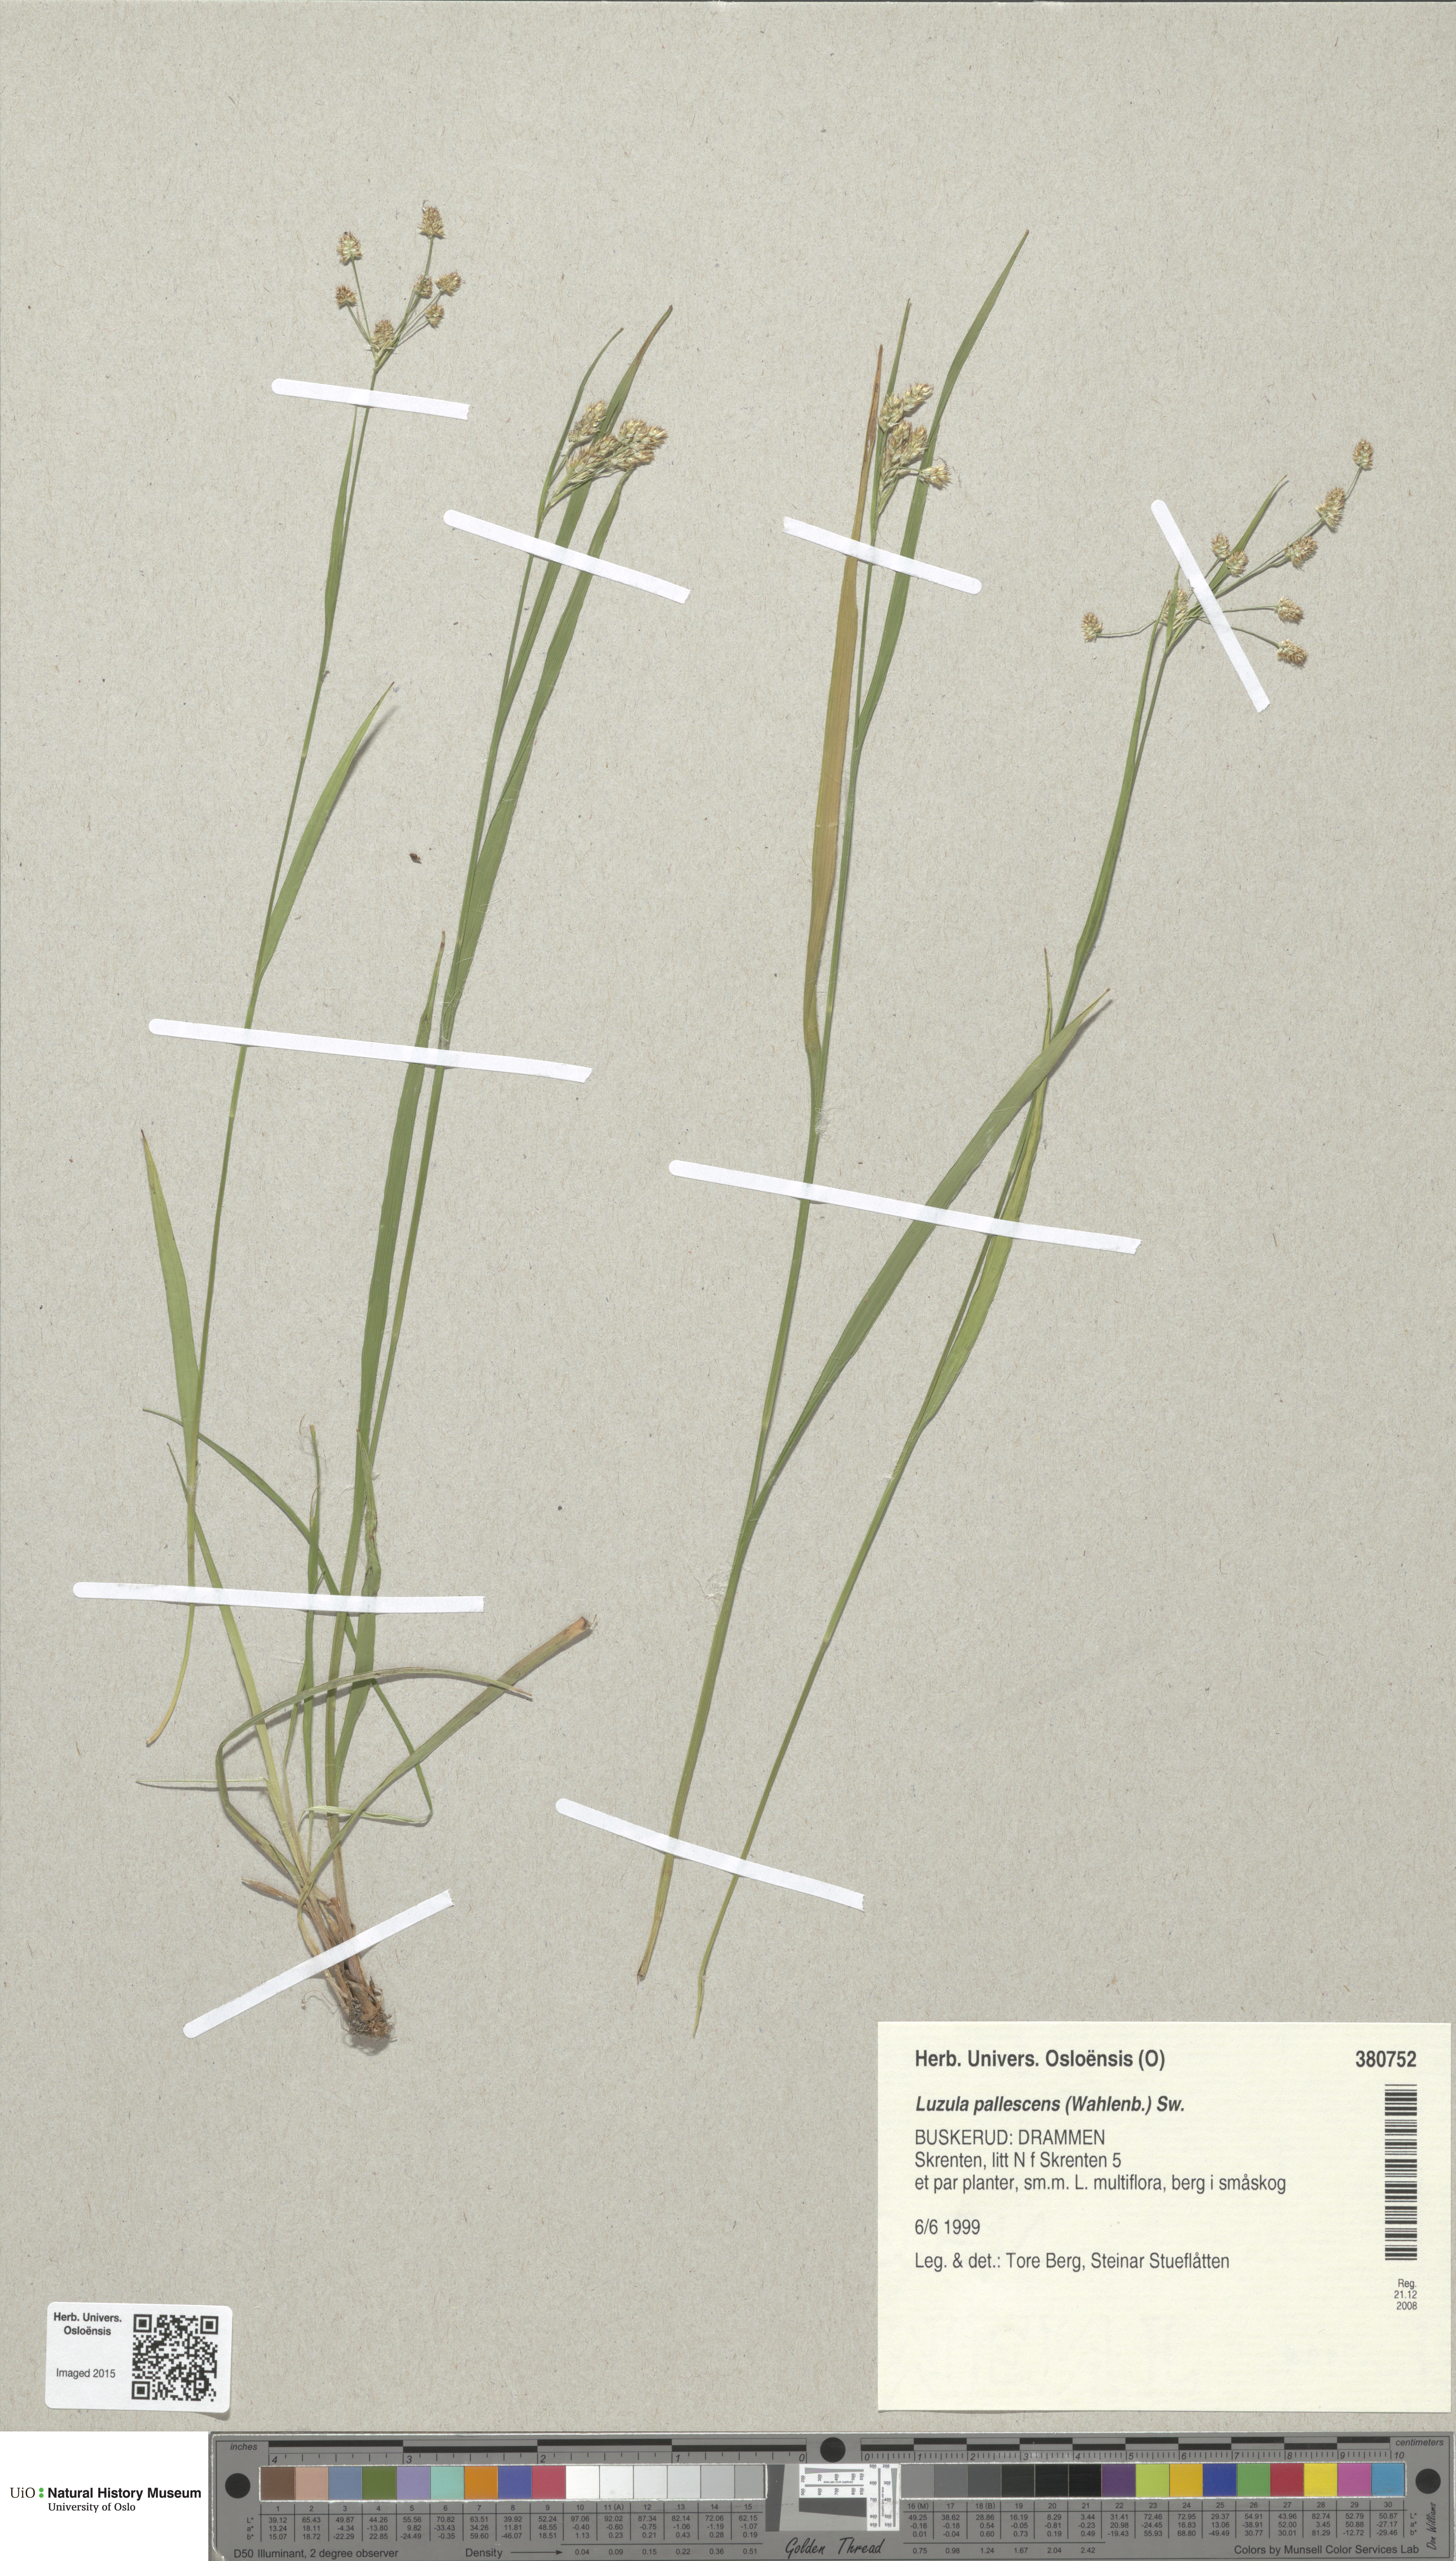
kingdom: Plantae
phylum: Tracheophyta
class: Liliopsida
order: Poales
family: Juncaceae
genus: Luzula
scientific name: Luzula pallescens
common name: Fen wood-rush
